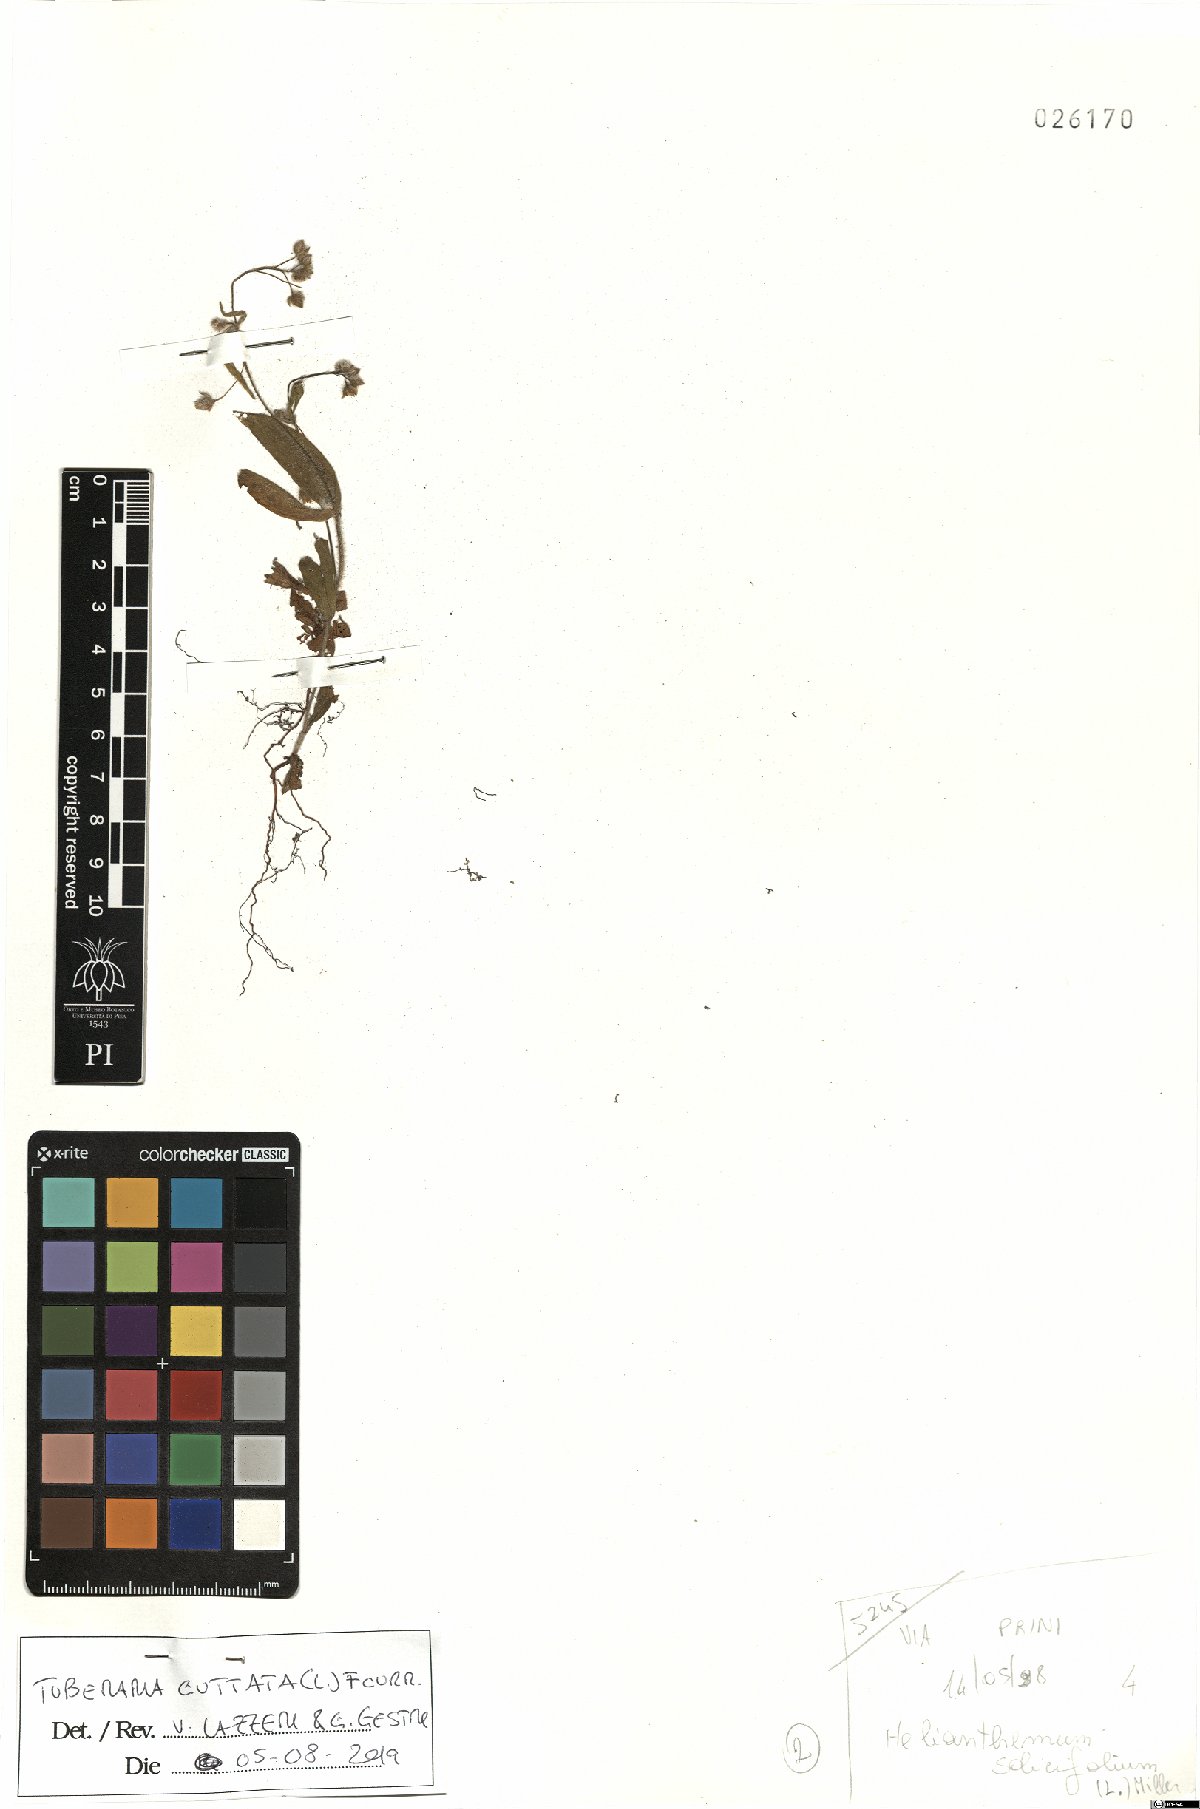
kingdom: Plantae
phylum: Tracheophyta
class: Magnoliopsida
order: Malvales
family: Cistaceae
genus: Tuberaria
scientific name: Tuberaria guttata
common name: Spotted rock-rose
